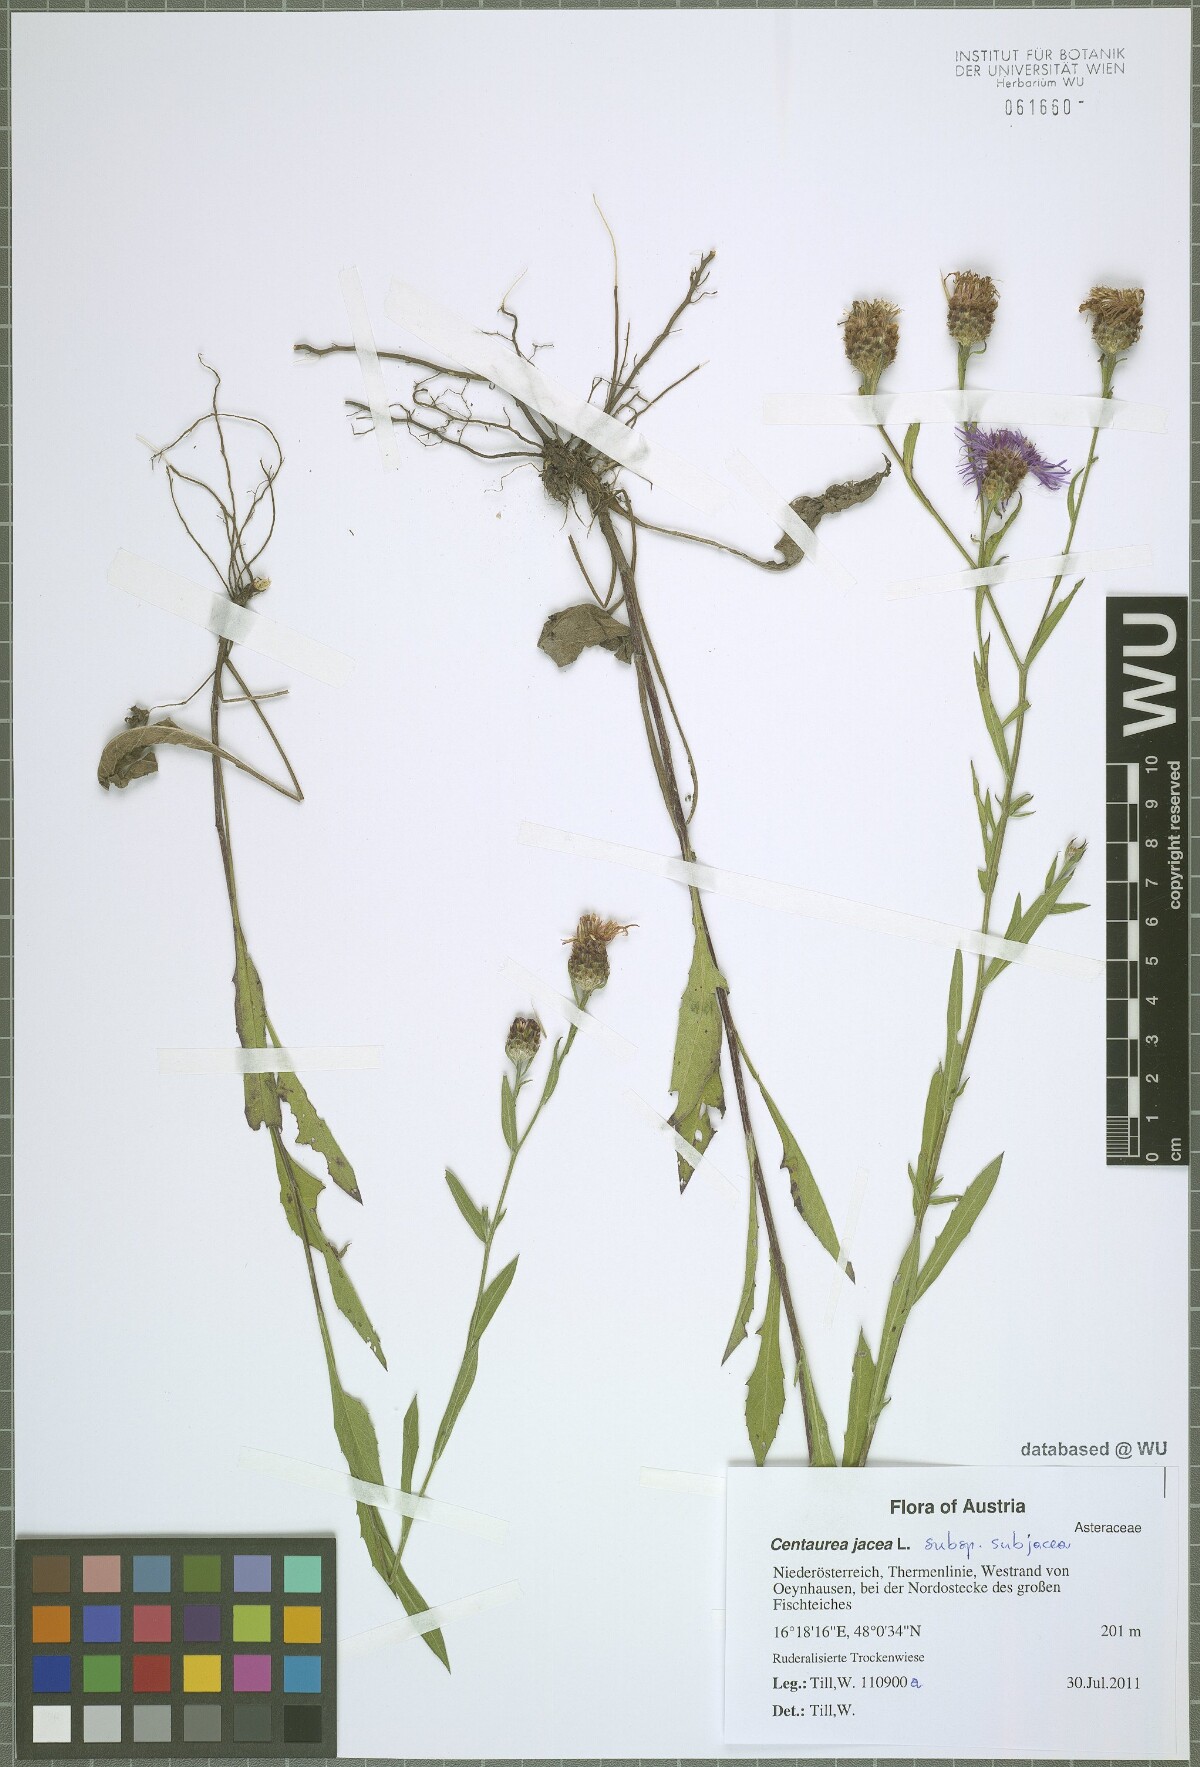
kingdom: Plantae
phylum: Tracheophyta
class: Magnoliopsida
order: Asterales
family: Asteraceae
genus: Centaurea
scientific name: Centaurea preissmannii
